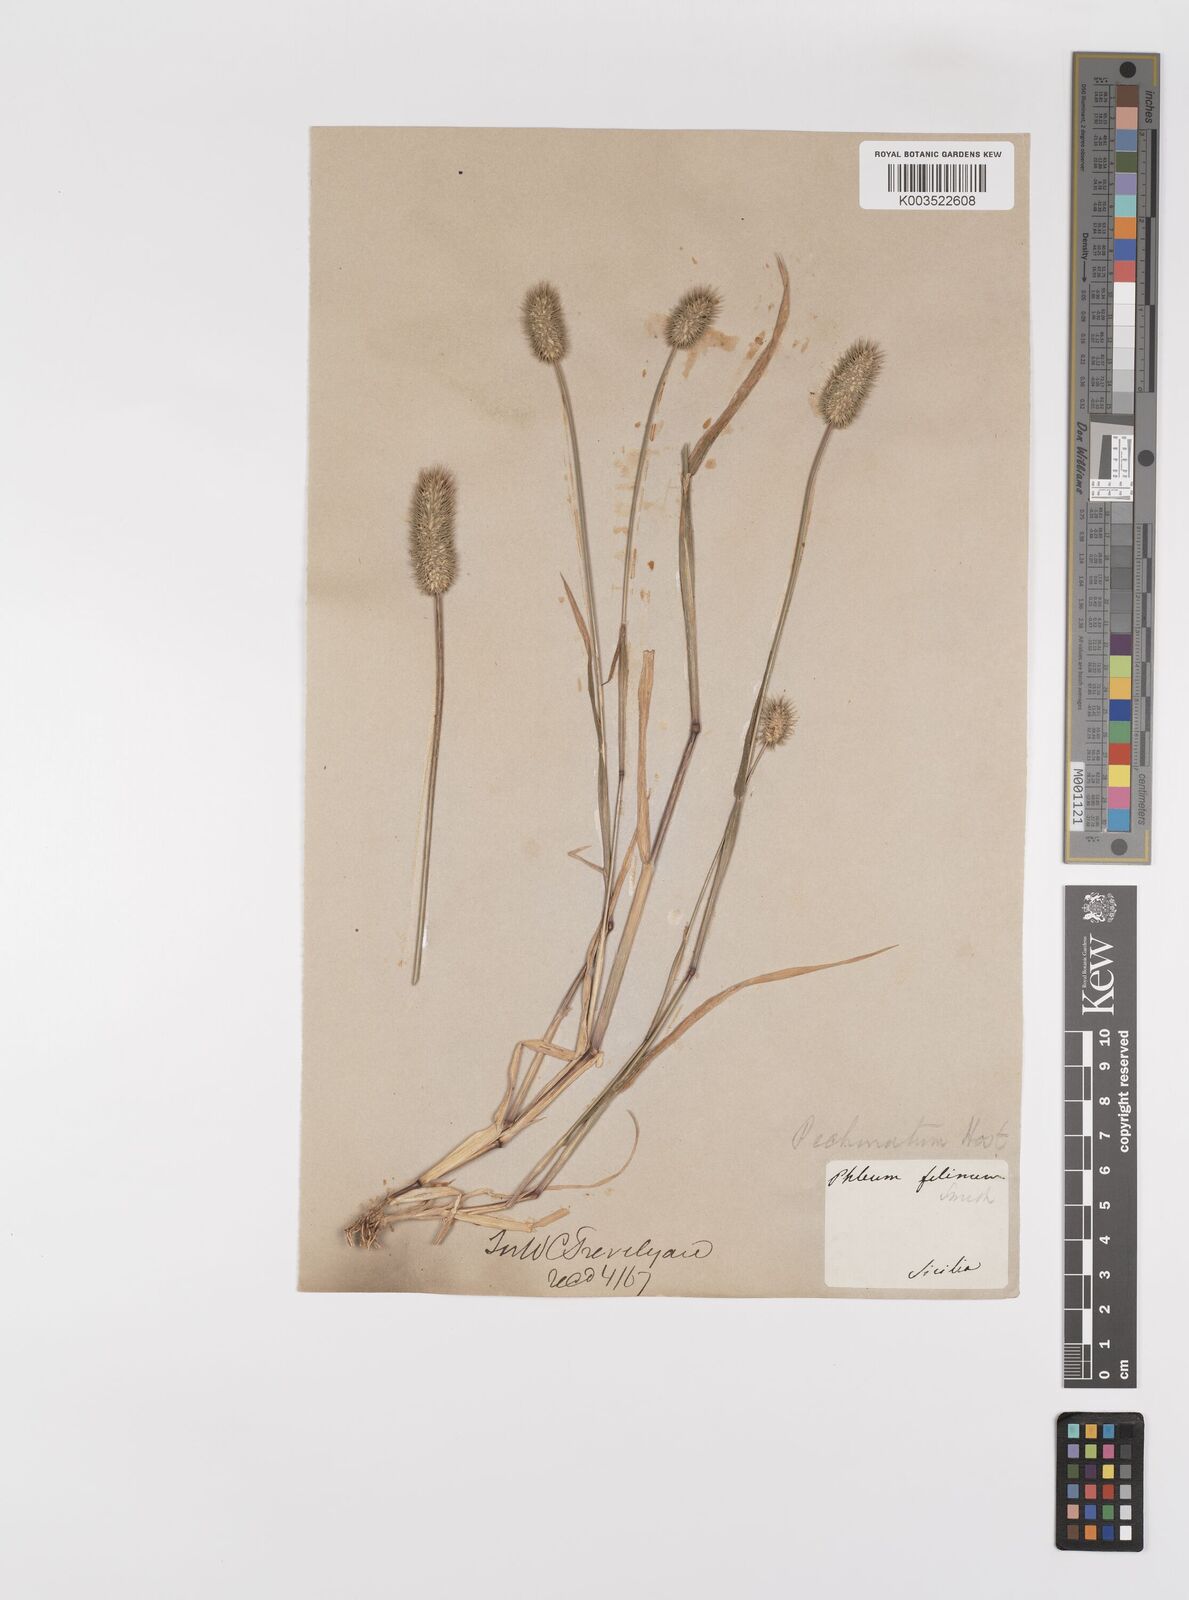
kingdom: Plantae
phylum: Tracheophyta
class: Liliopsida
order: Poales
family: Poaceae
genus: Phleum
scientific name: Phleum echinatum
